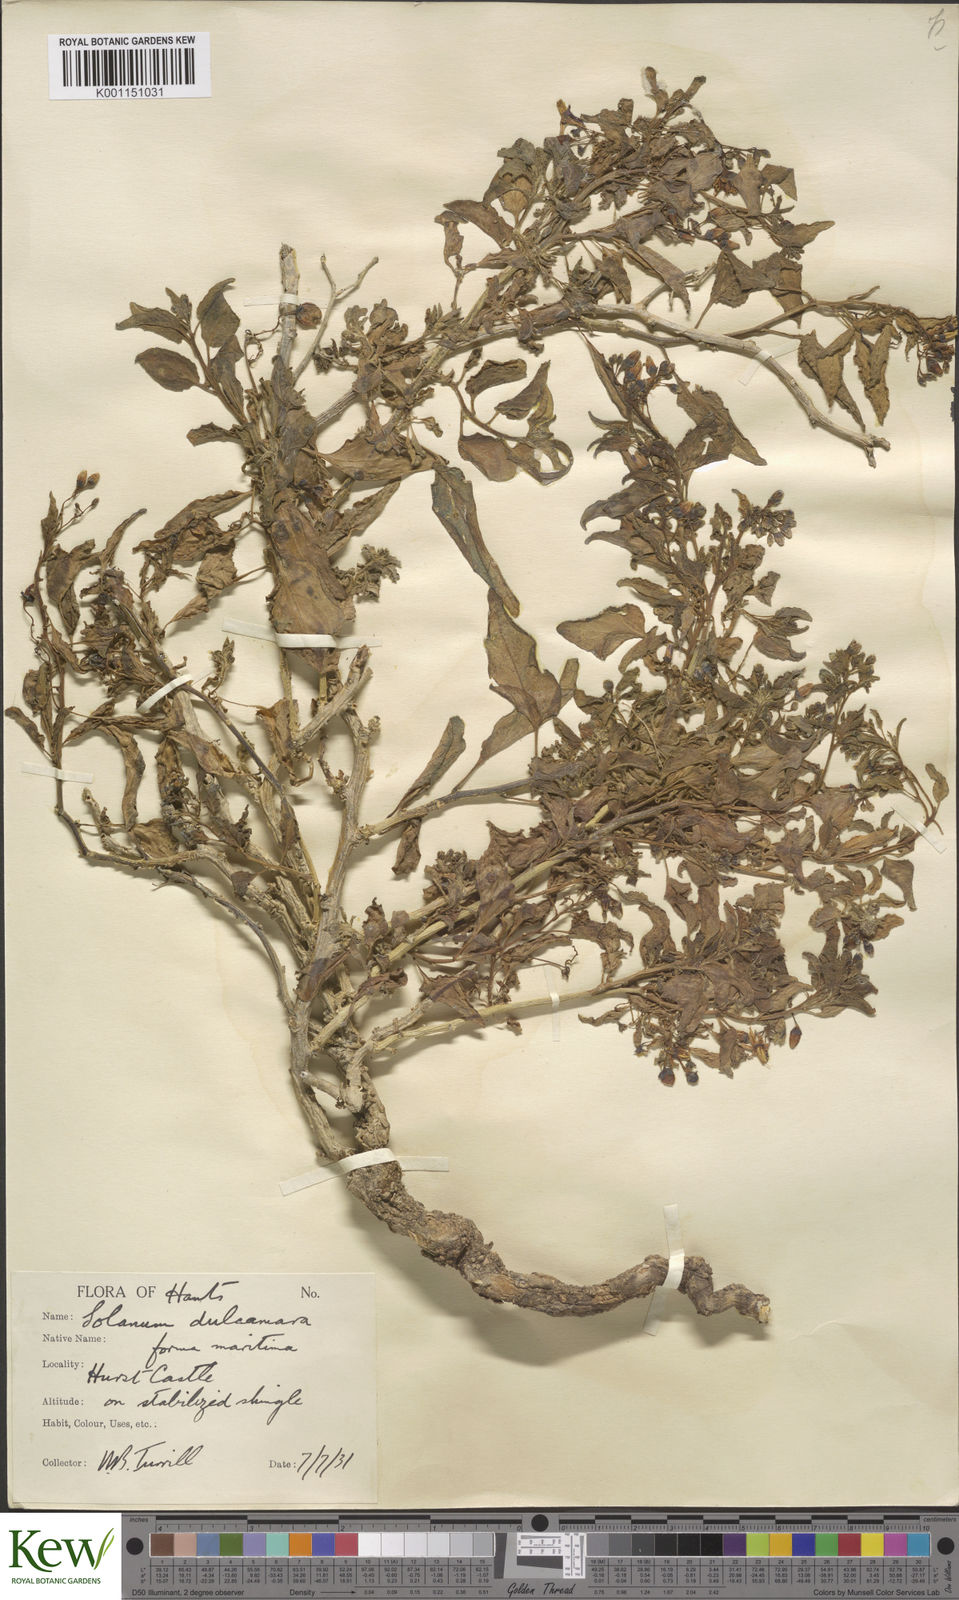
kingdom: Plantae
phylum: Tracheophyta
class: Magnoliopsida
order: Solanales
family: Solanaceae
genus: Solanum
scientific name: Solanum dulcamara
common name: Climbing nightshade
